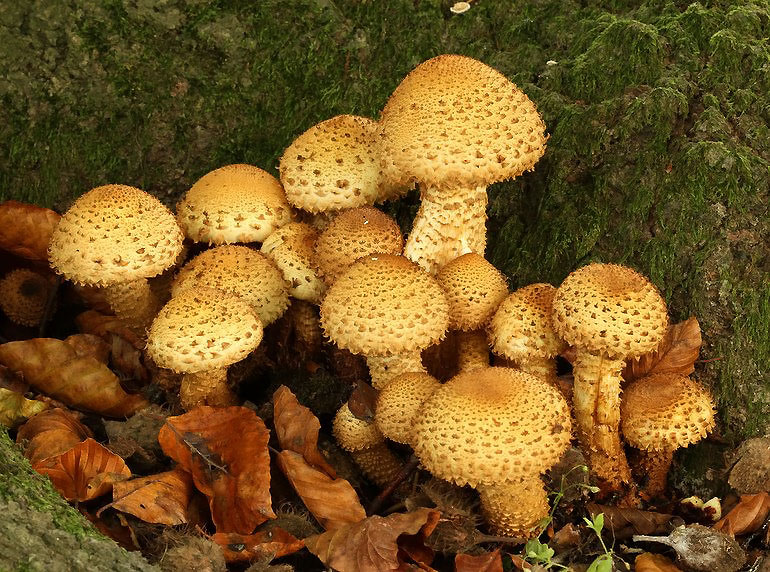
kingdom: Fungi
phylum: Basidiomycota
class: Agaricomycetes
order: Agaricales
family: Strophariaceae
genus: Pholiota
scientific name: Pholiota squarrosa
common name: krumskællet skælhat
